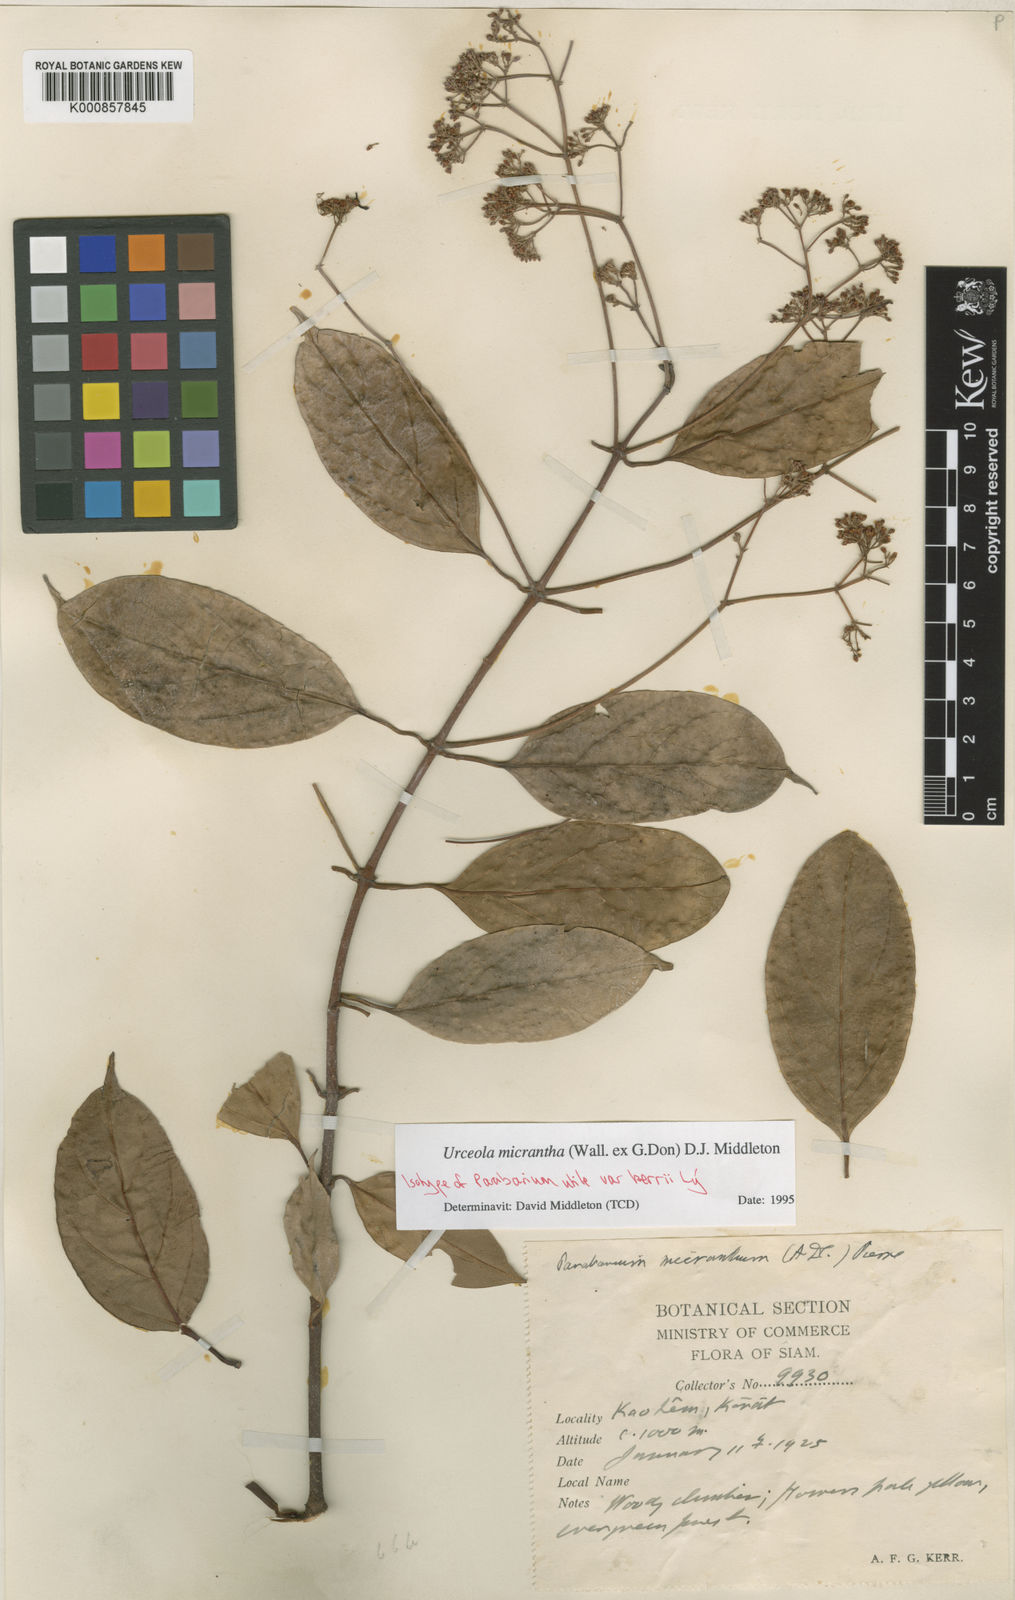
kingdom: Plantae
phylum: Tracheophyta
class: Magnoliopsida
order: Gentianales
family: Apocynaceae
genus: Urceola
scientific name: Urceola micrantha
